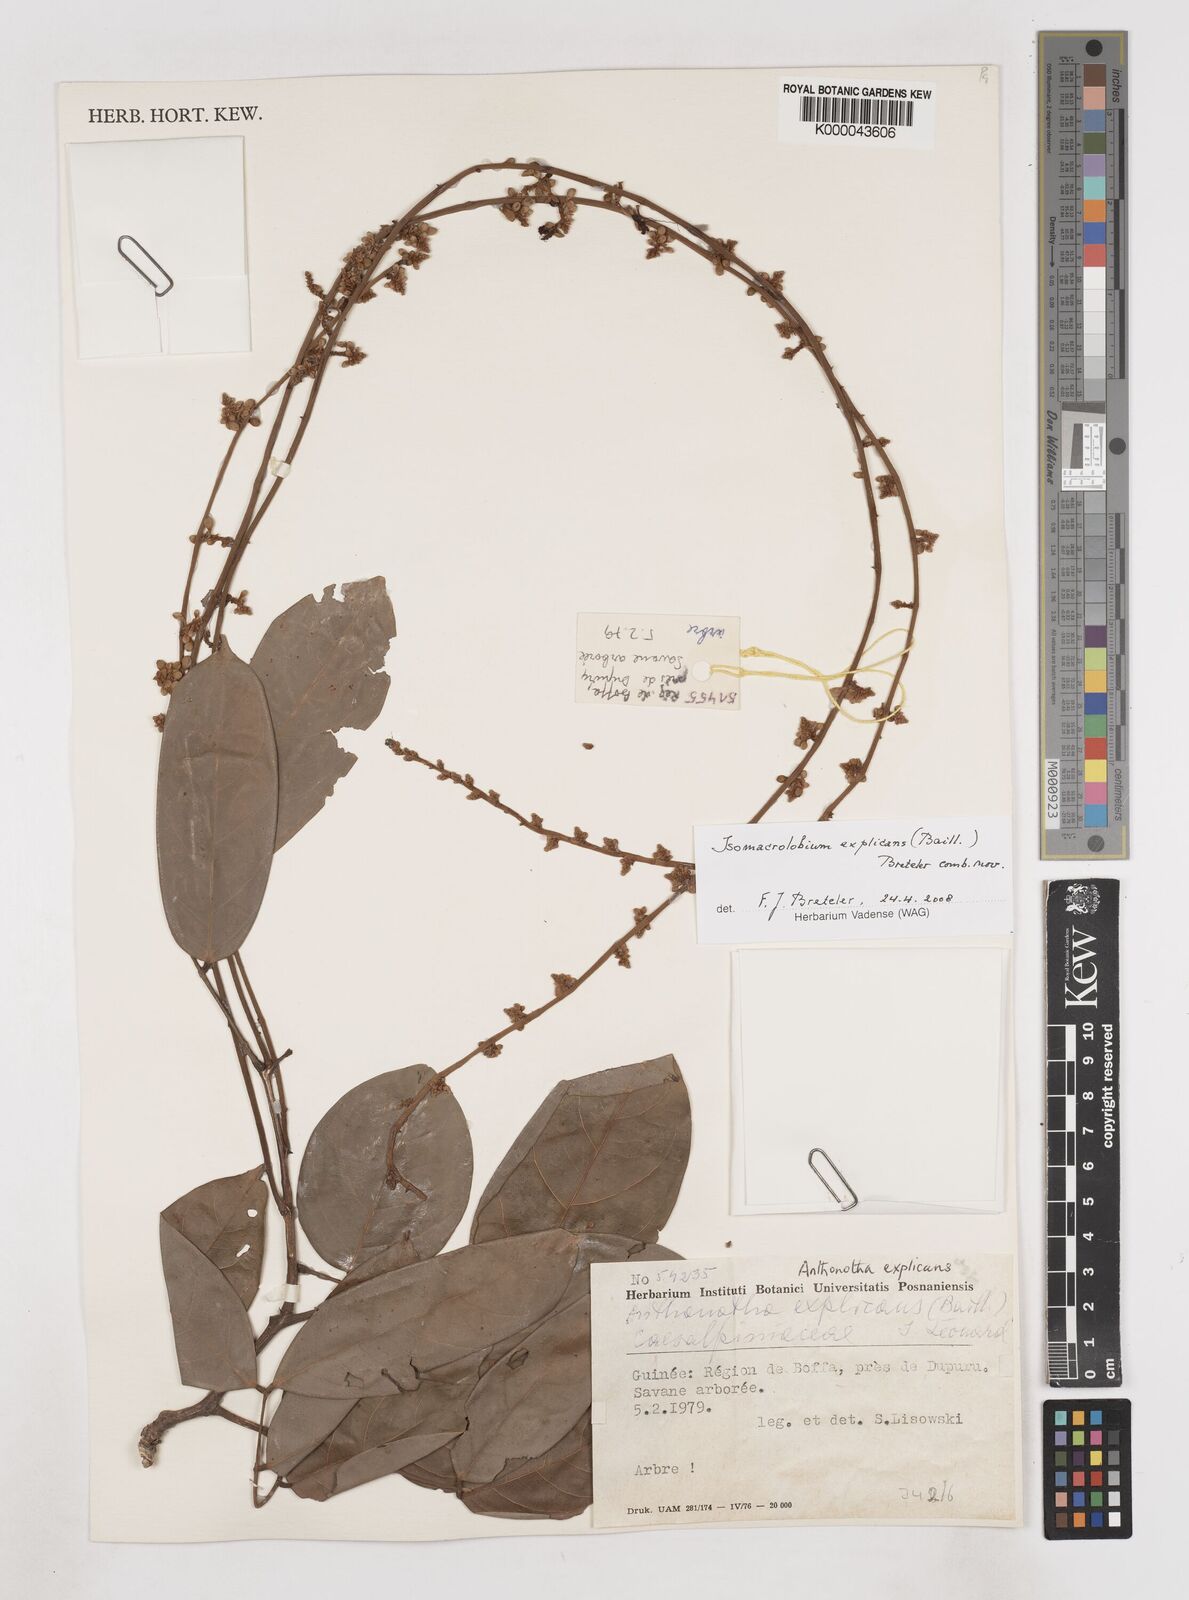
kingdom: Plantae
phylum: Tracheophyta
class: Magnoliopsida
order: Fabales
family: Fabaceae
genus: Englerodendron
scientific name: Englerodendron explicans
